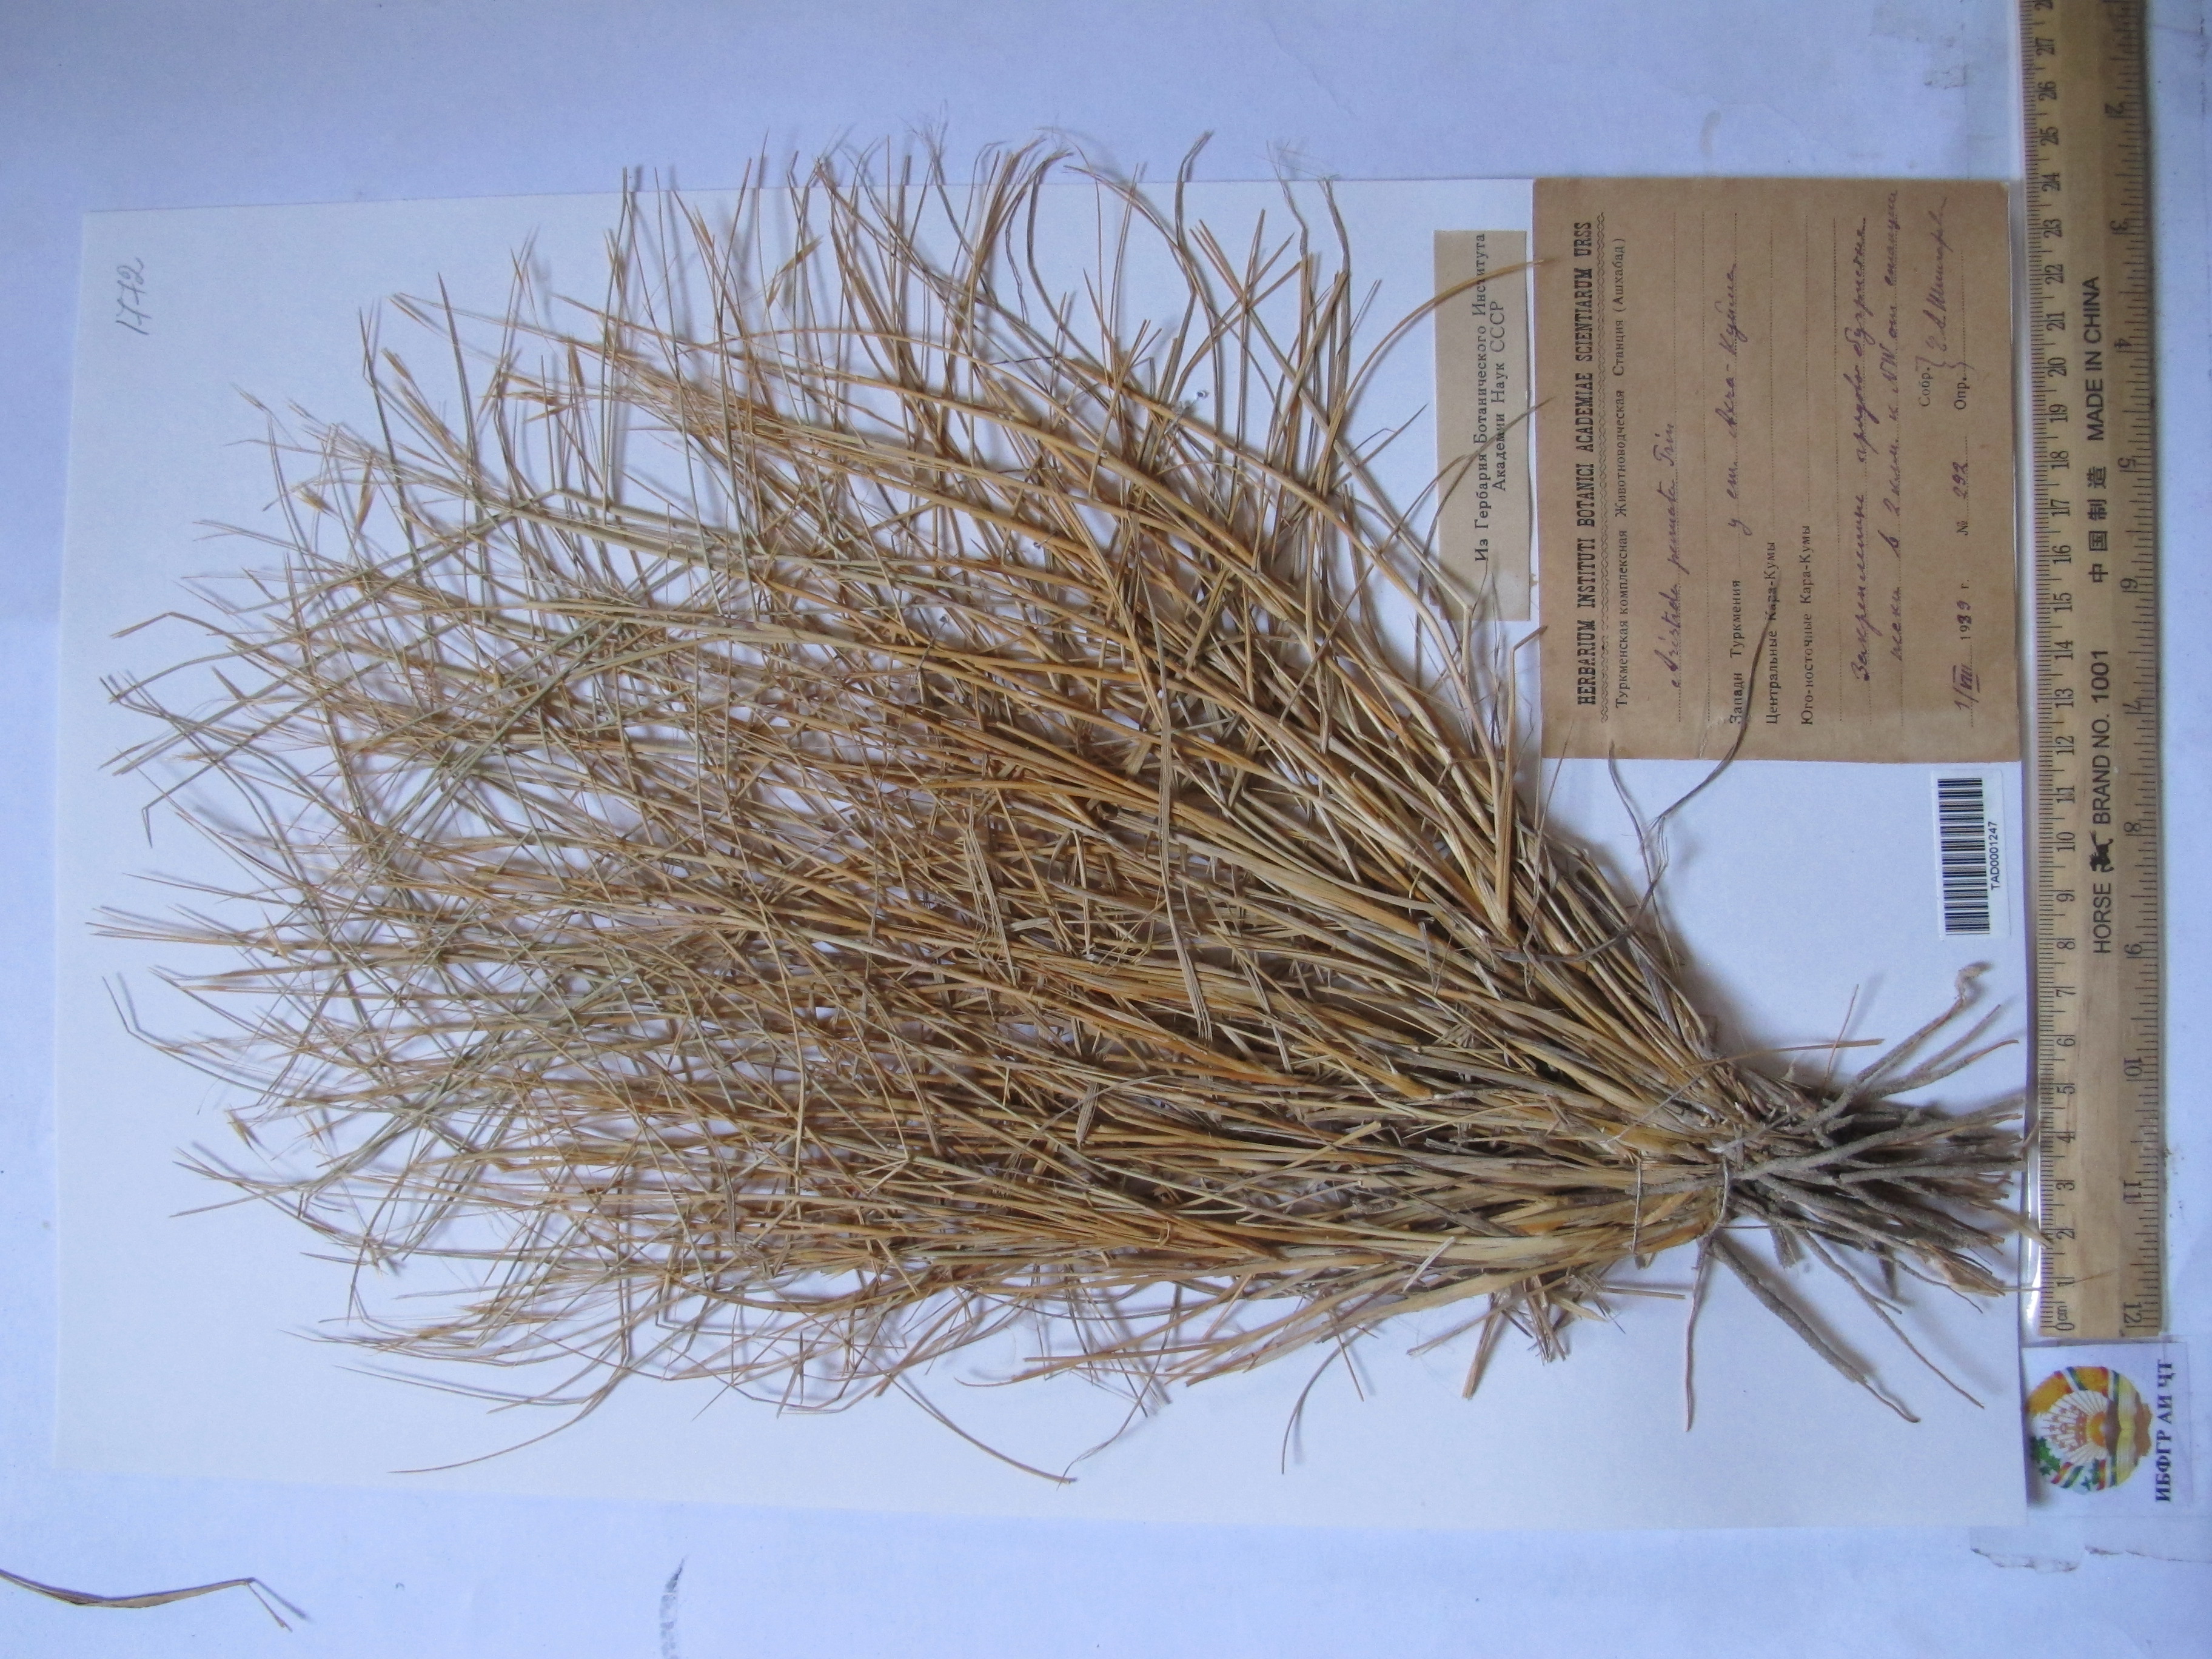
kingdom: Plantae
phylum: Tracheophyta
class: Liliopsida
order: Poales
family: Poaceae
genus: Stipagrostis
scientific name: Stipagrostis pennata
